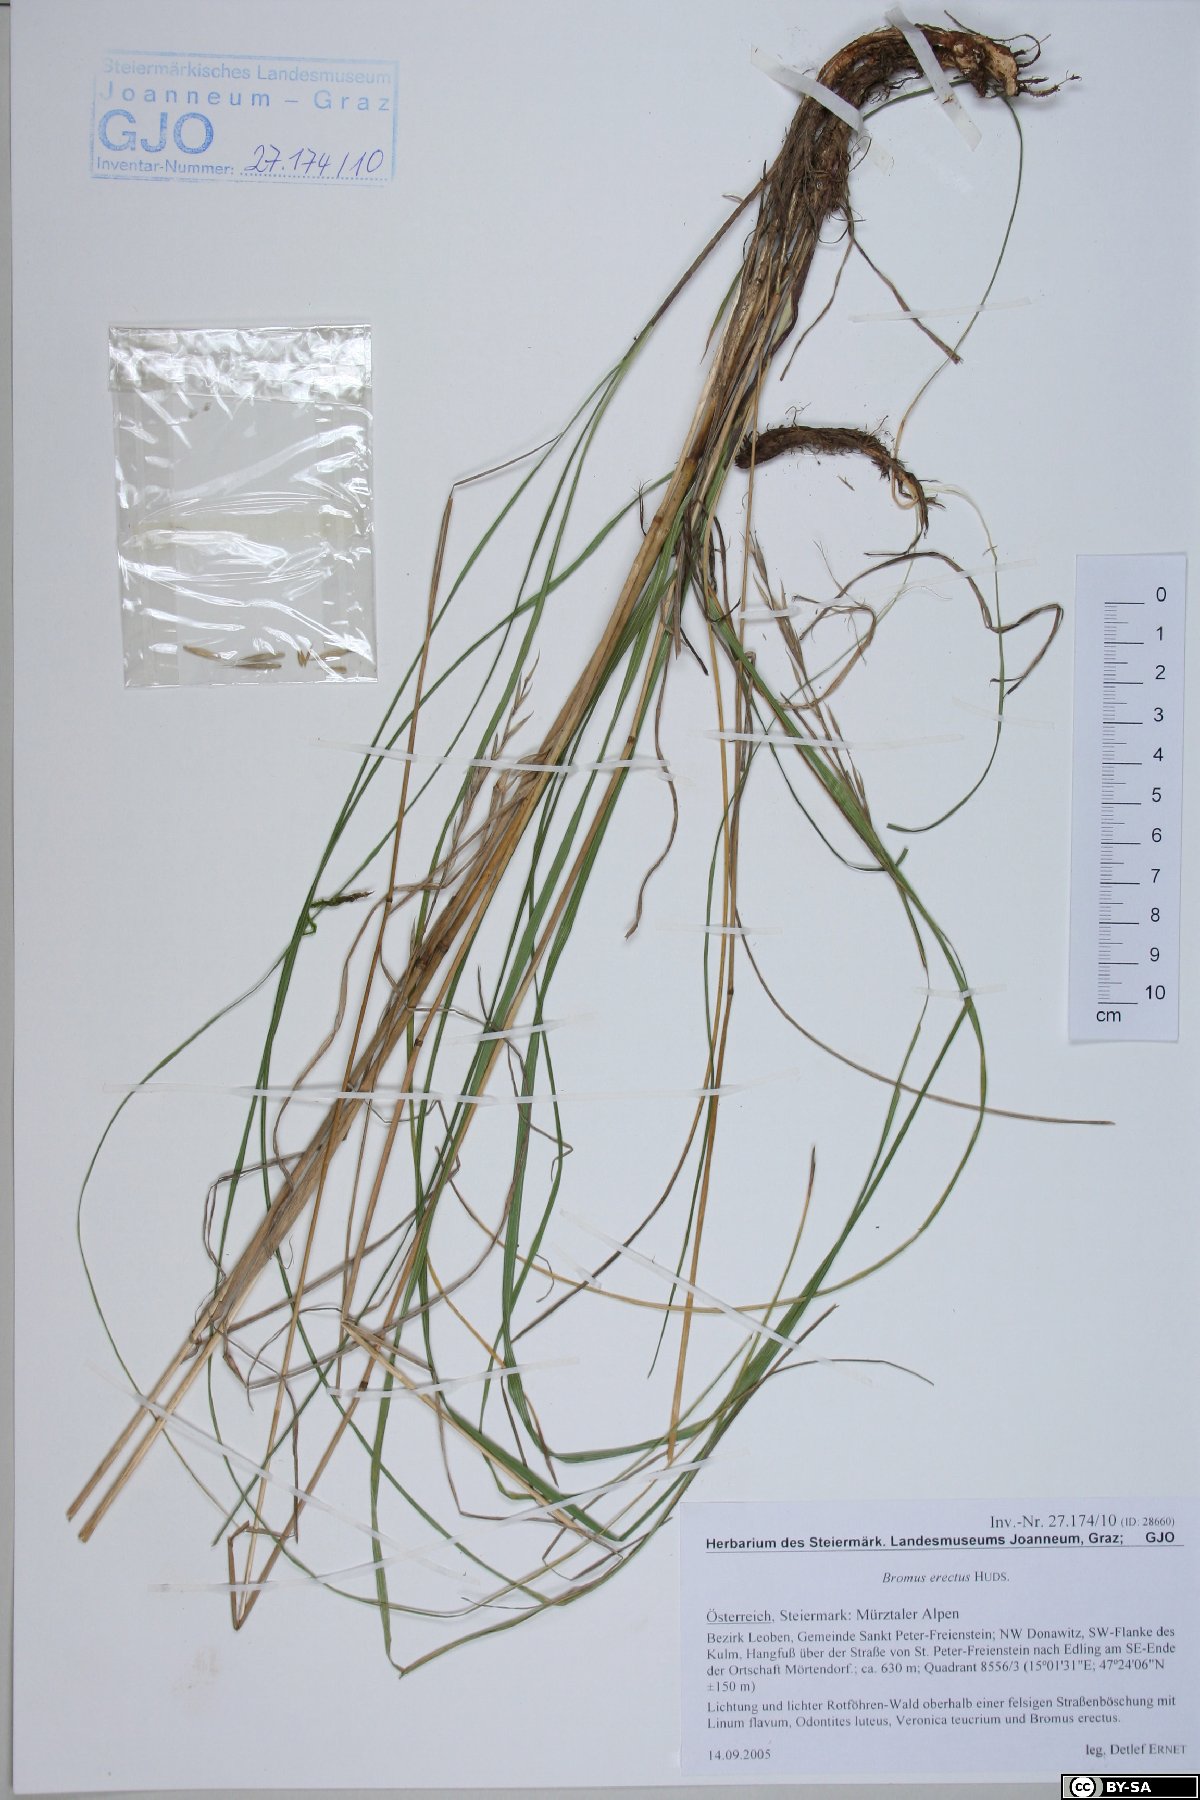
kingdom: Plantae
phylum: Tracheophyta
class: Liliopsida
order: Poales
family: Poaceae
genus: Bromus
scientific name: Bromus erectus
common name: Erect brome
